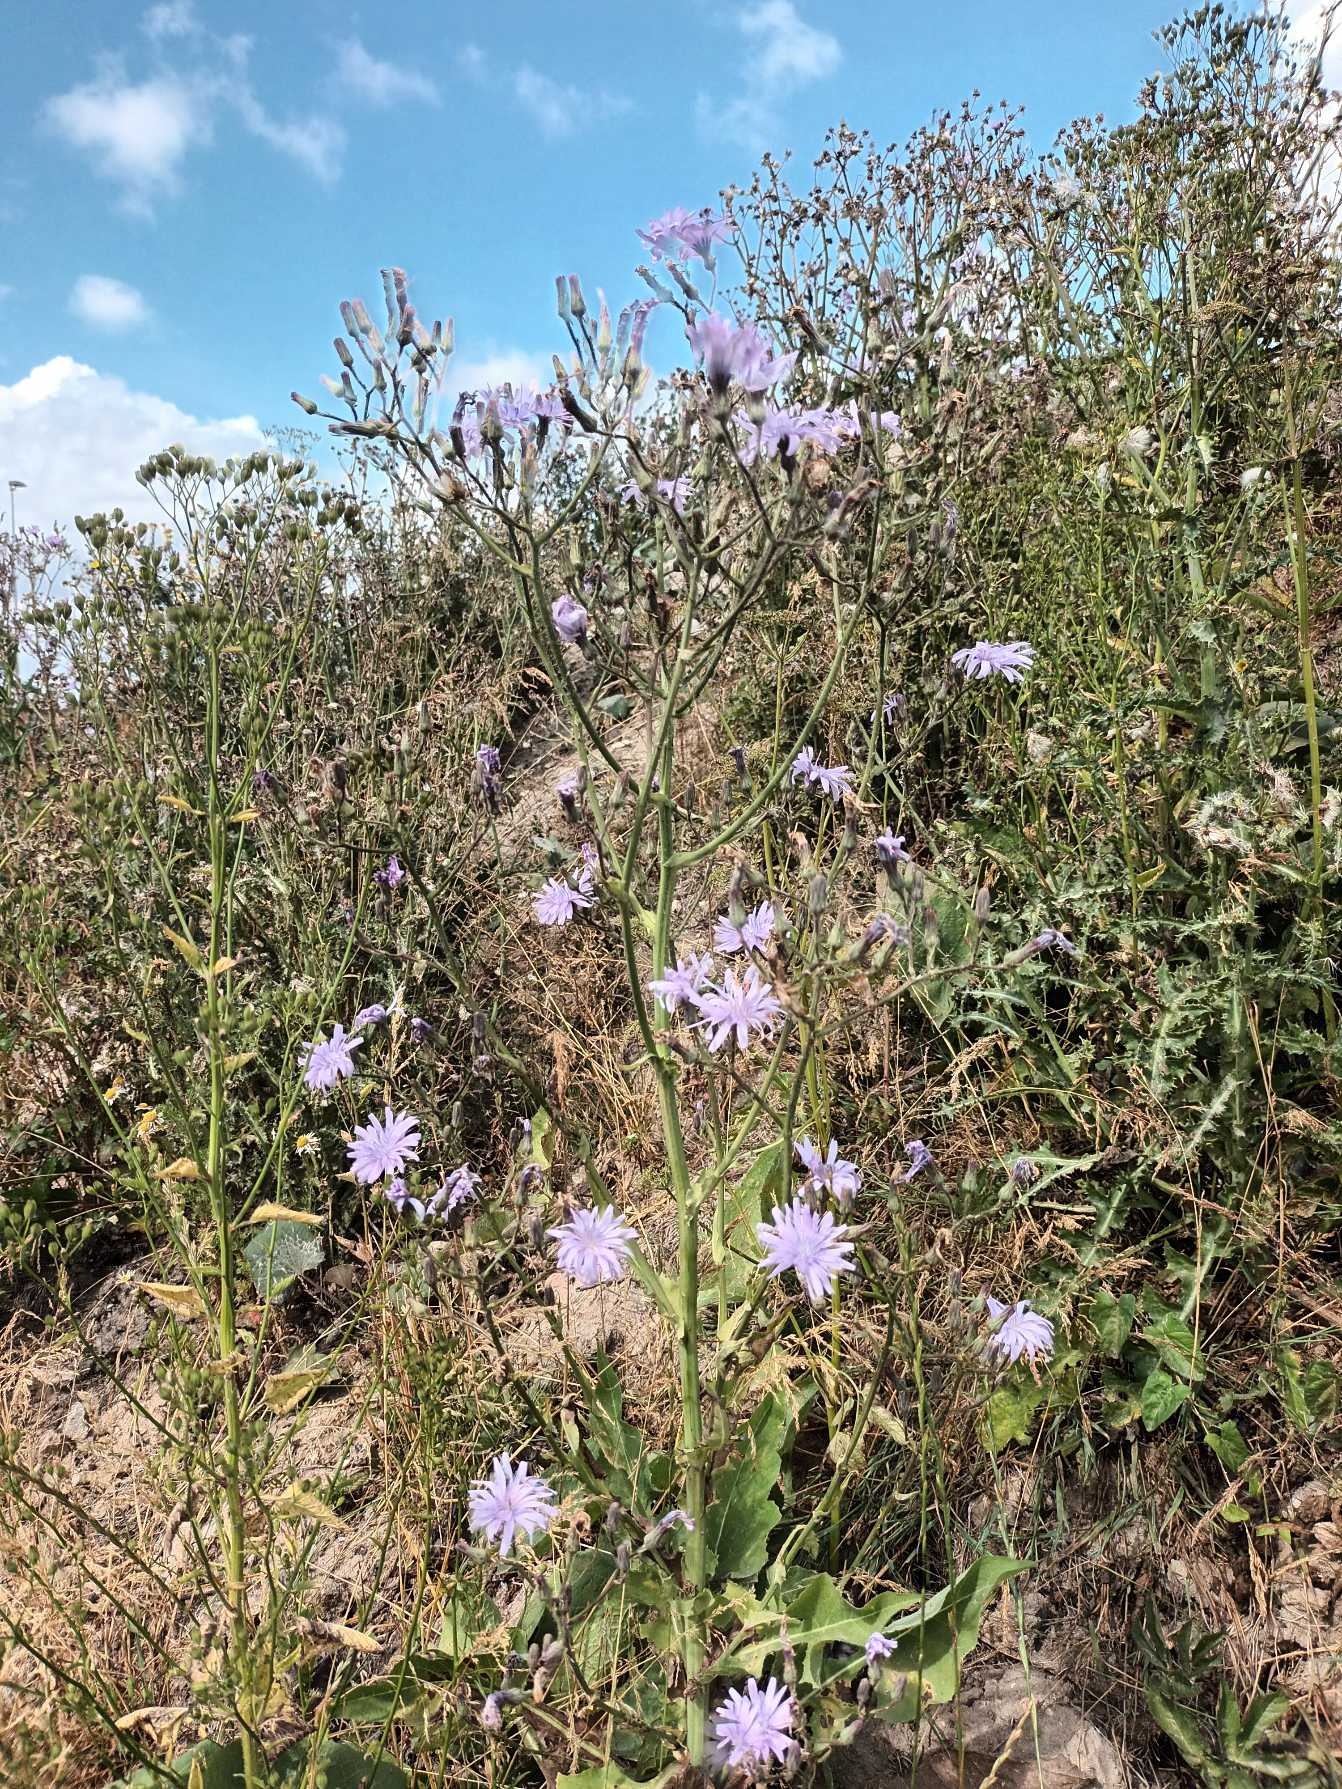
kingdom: Plantae
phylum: Tracheophyta
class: Magnoliopsida
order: Asterales
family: Asteraceae
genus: Lactuca
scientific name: Lactuca macrophylla
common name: Kæmpe-salat
